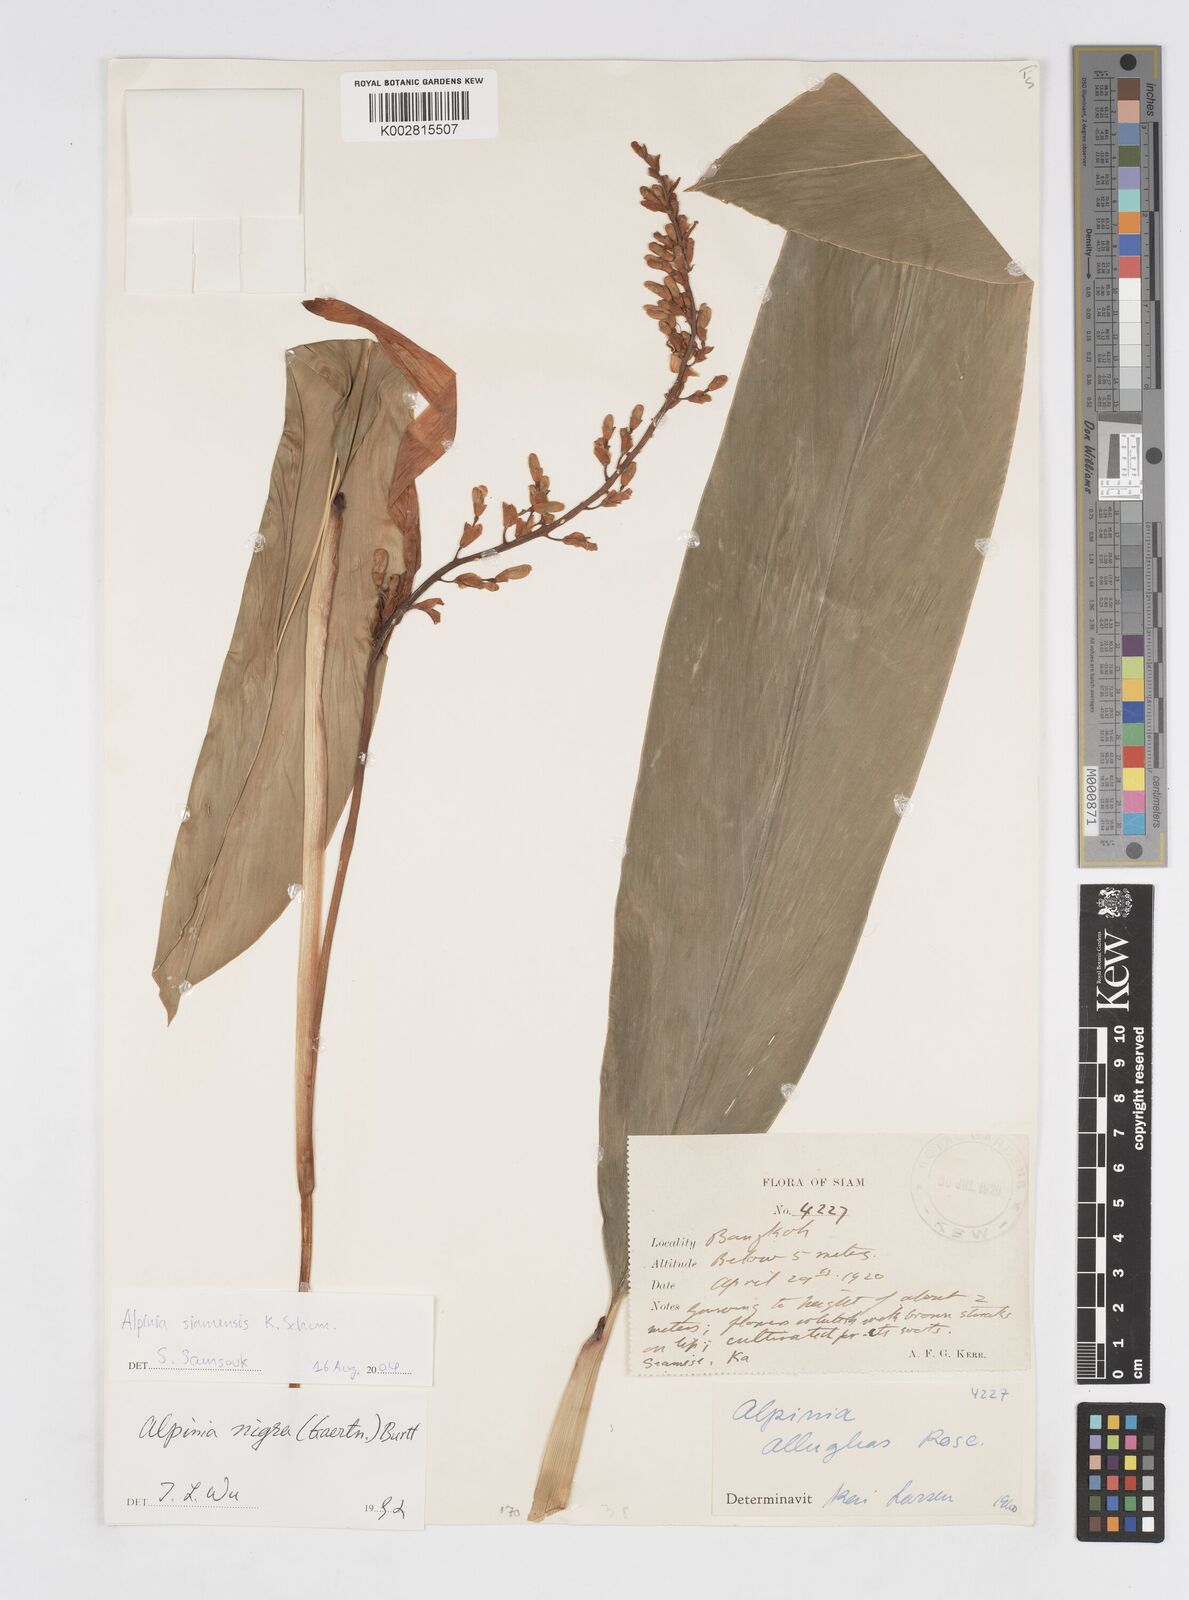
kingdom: Plantae
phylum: Tracheophyta
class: Liliopsida
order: Zingiberales
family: Zingiberaceae
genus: Alpinia
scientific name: Alpinia siamensis
